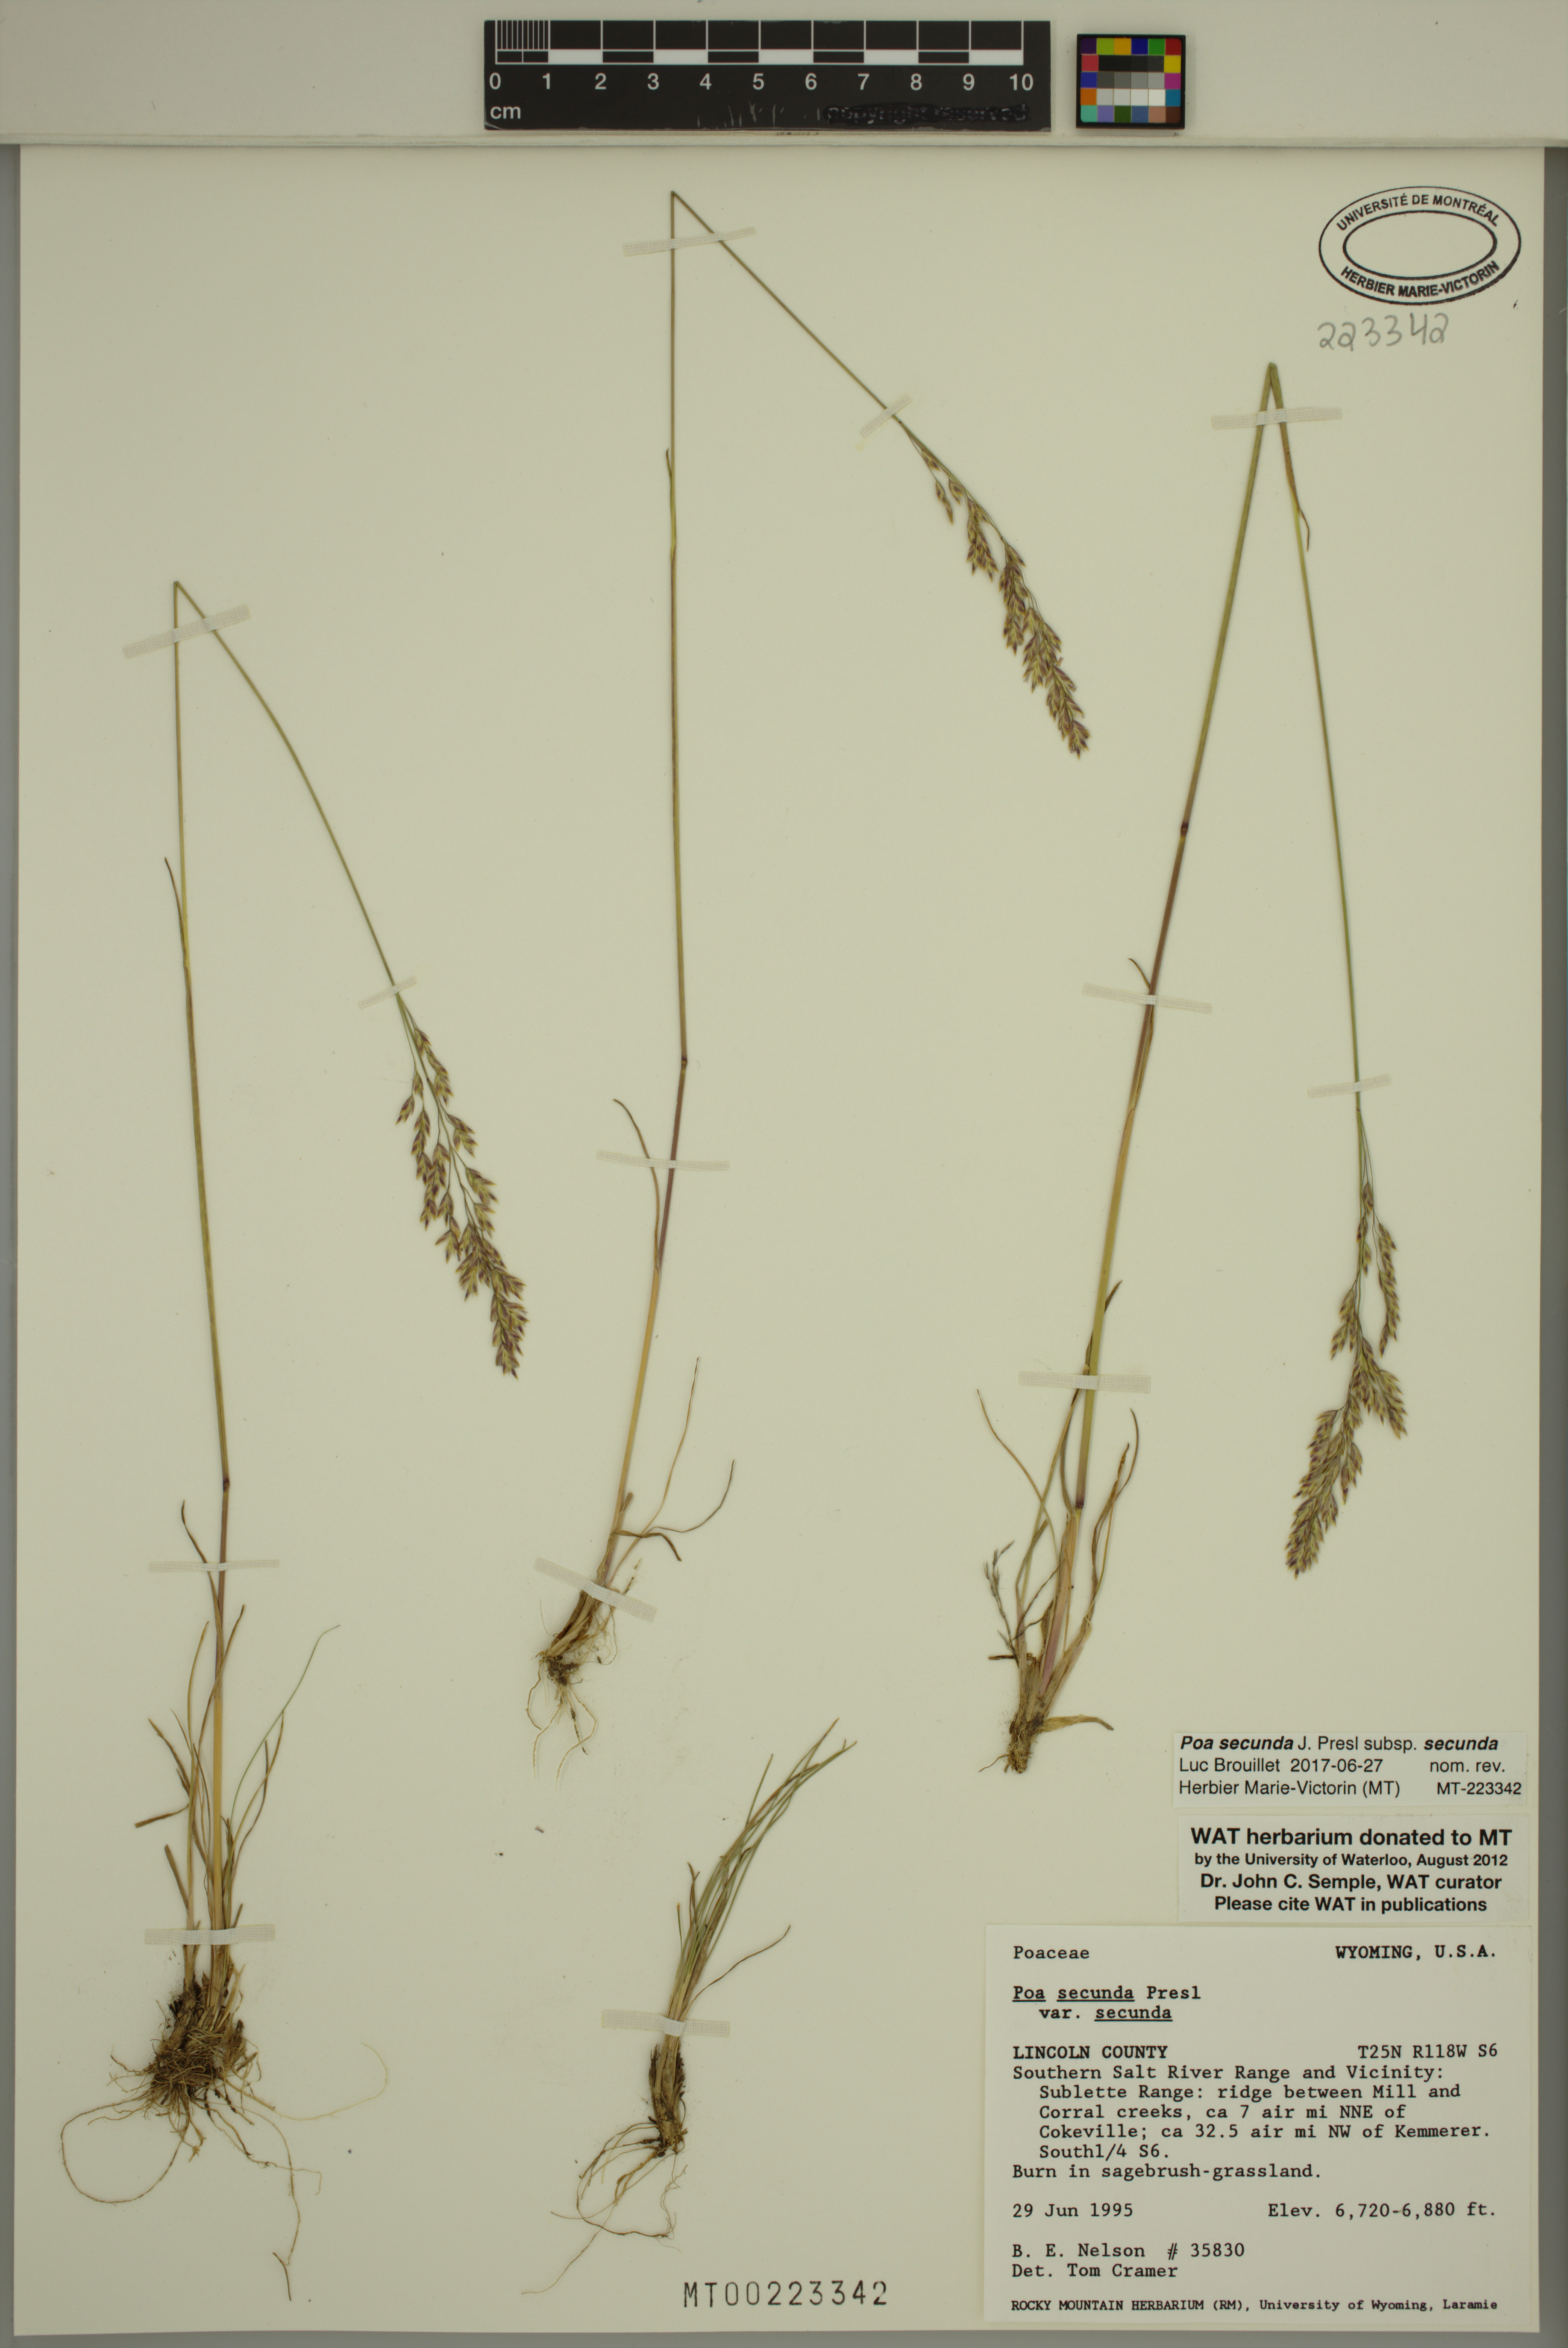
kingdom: Plantae
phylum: Tracheophyta
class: Liliopsida
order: Poales
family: Poaceae
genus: Poa
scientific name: Poa secunda
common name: Sandberg bluegrass
